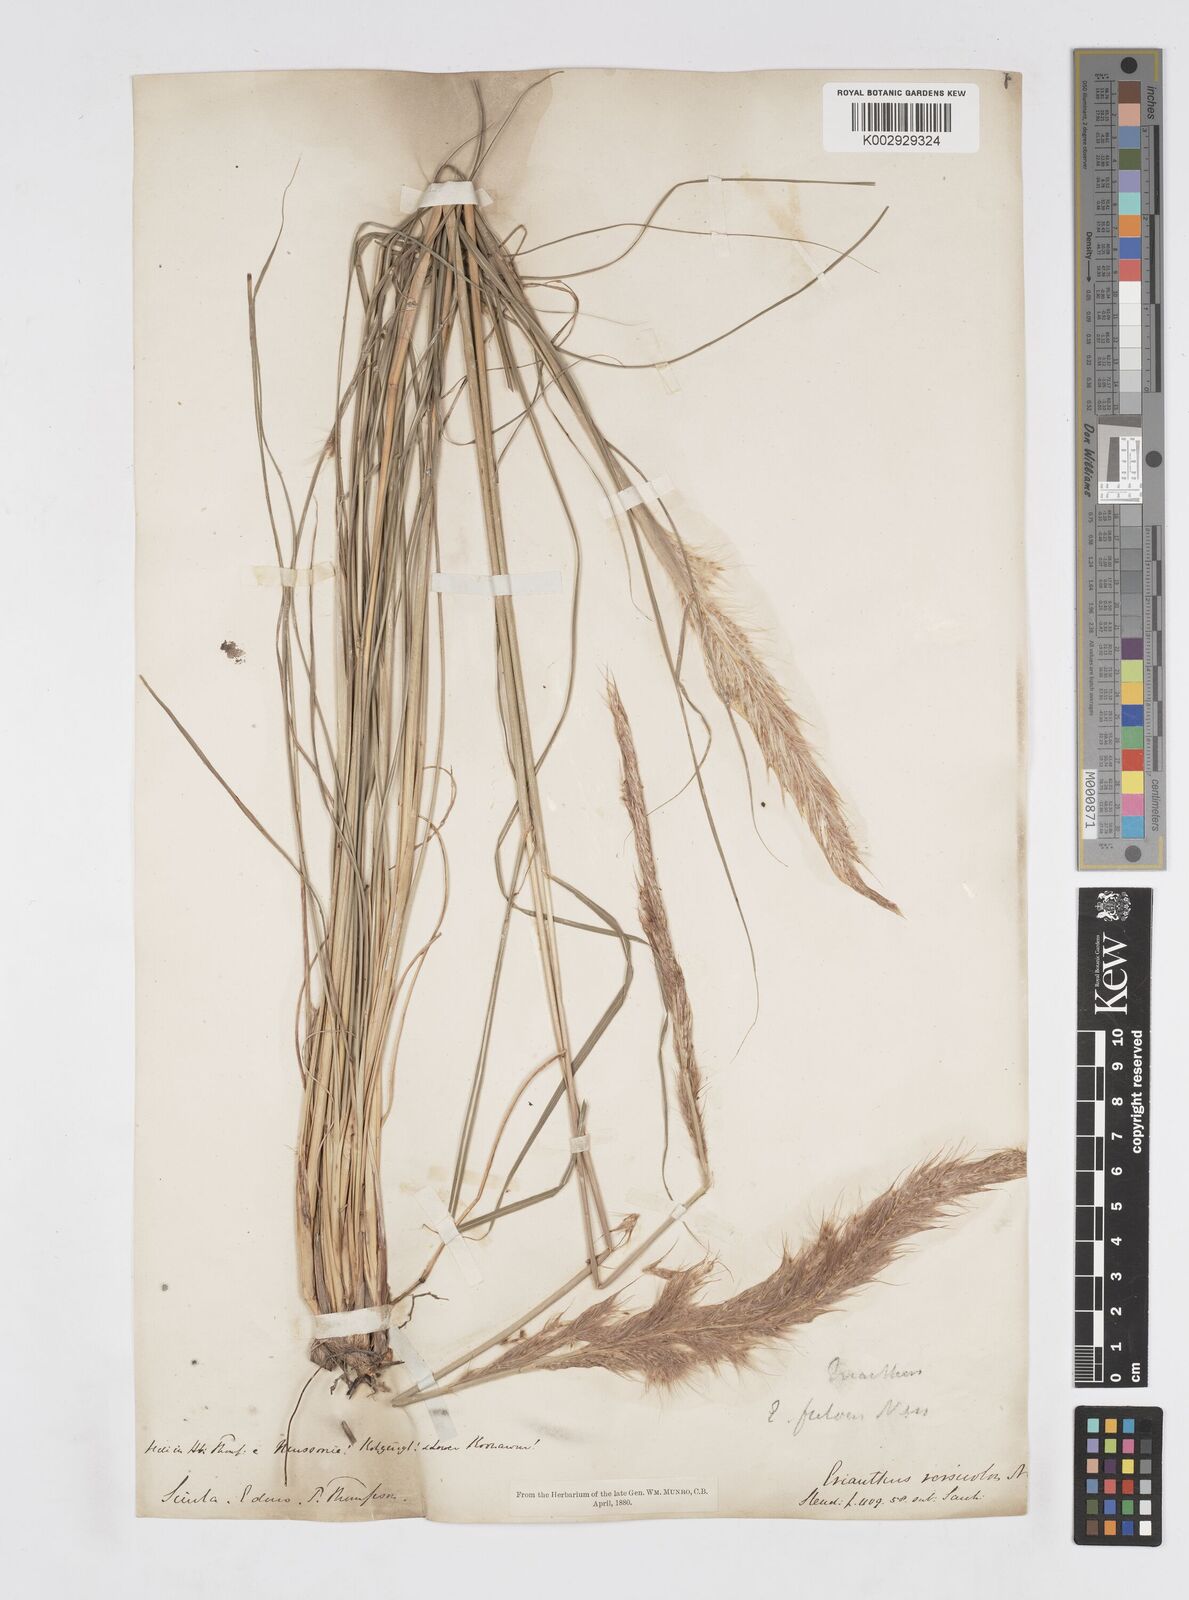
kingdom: Plantae
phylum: Tracheophyta
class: Liliopsida
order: Poales
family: Poaceae
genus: Tripidium
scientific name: Tripidium rufipilum
